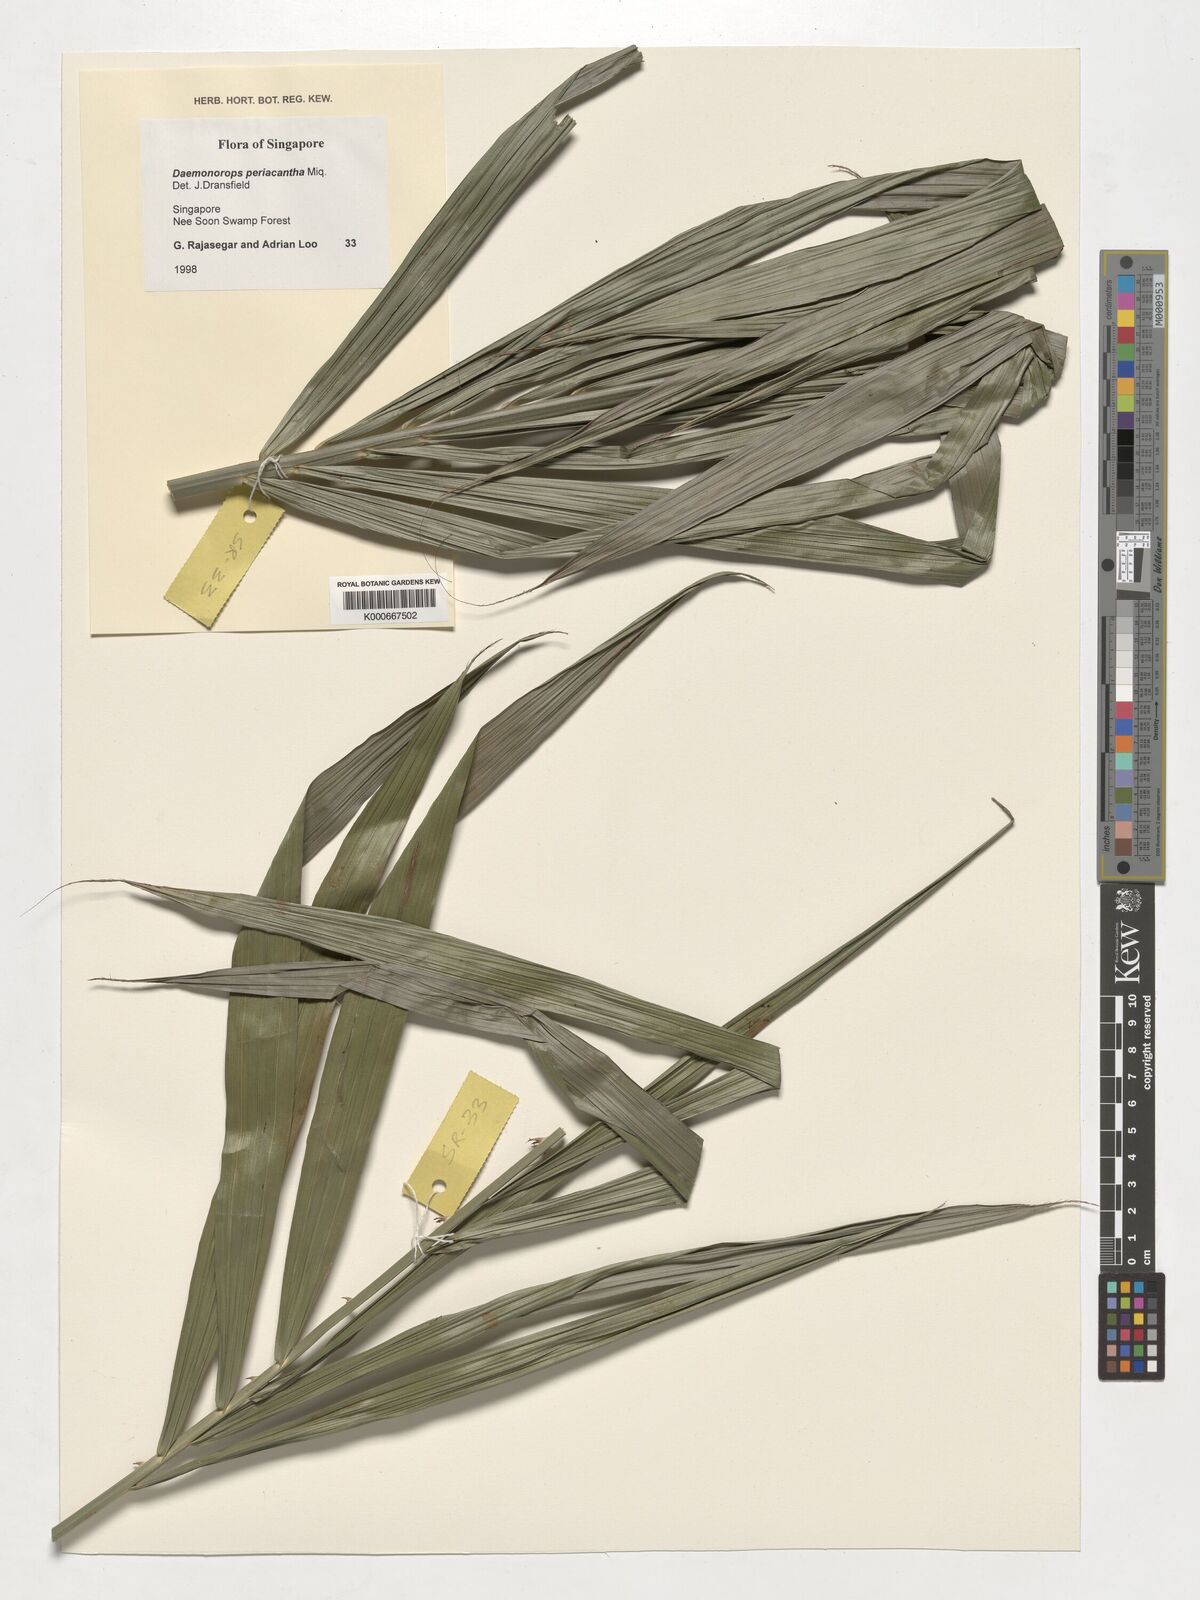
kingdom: Plantae
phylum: Tracheophyta
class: Liliopsida
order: Arecales
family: Arecaceae
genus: Calamus
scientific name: Calamus periacanthus
